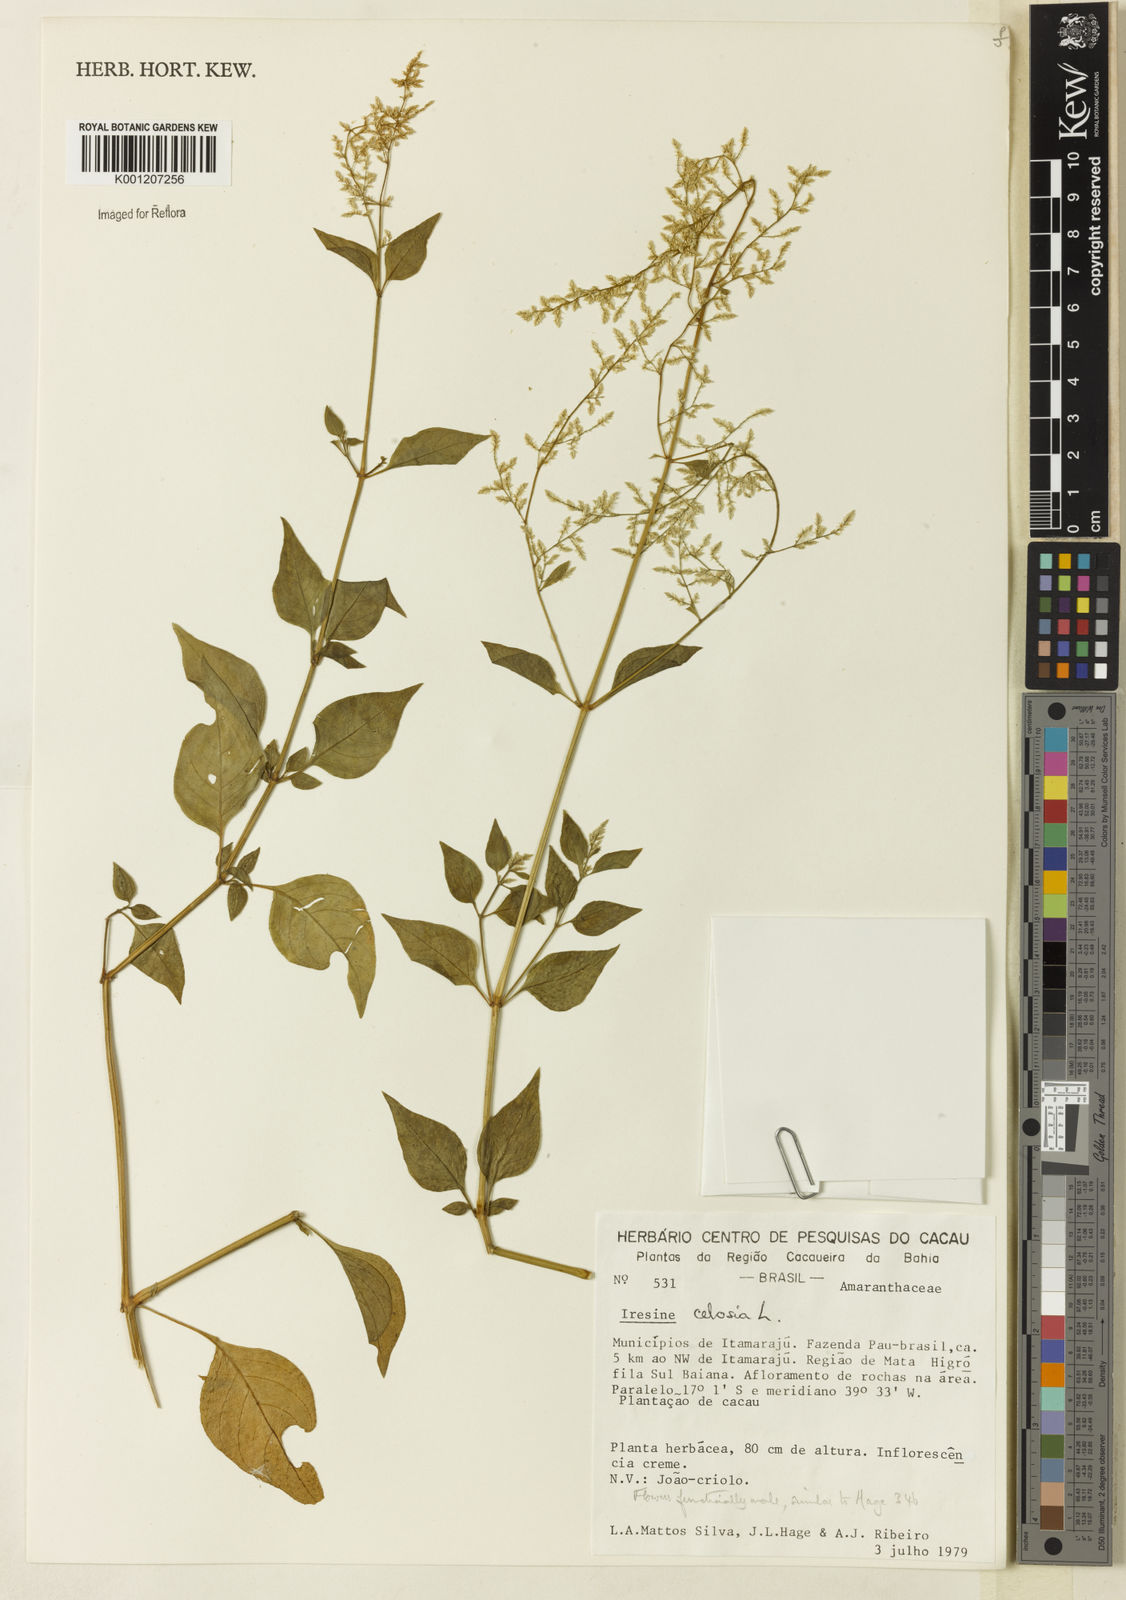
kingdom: Plantae
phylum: Tracheophyta
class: Magnoliopsida
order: Caryophyllales
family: Amaranthaceae
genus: Iresine
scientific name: Iresine rhizomatosa
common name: Juda's-bush
